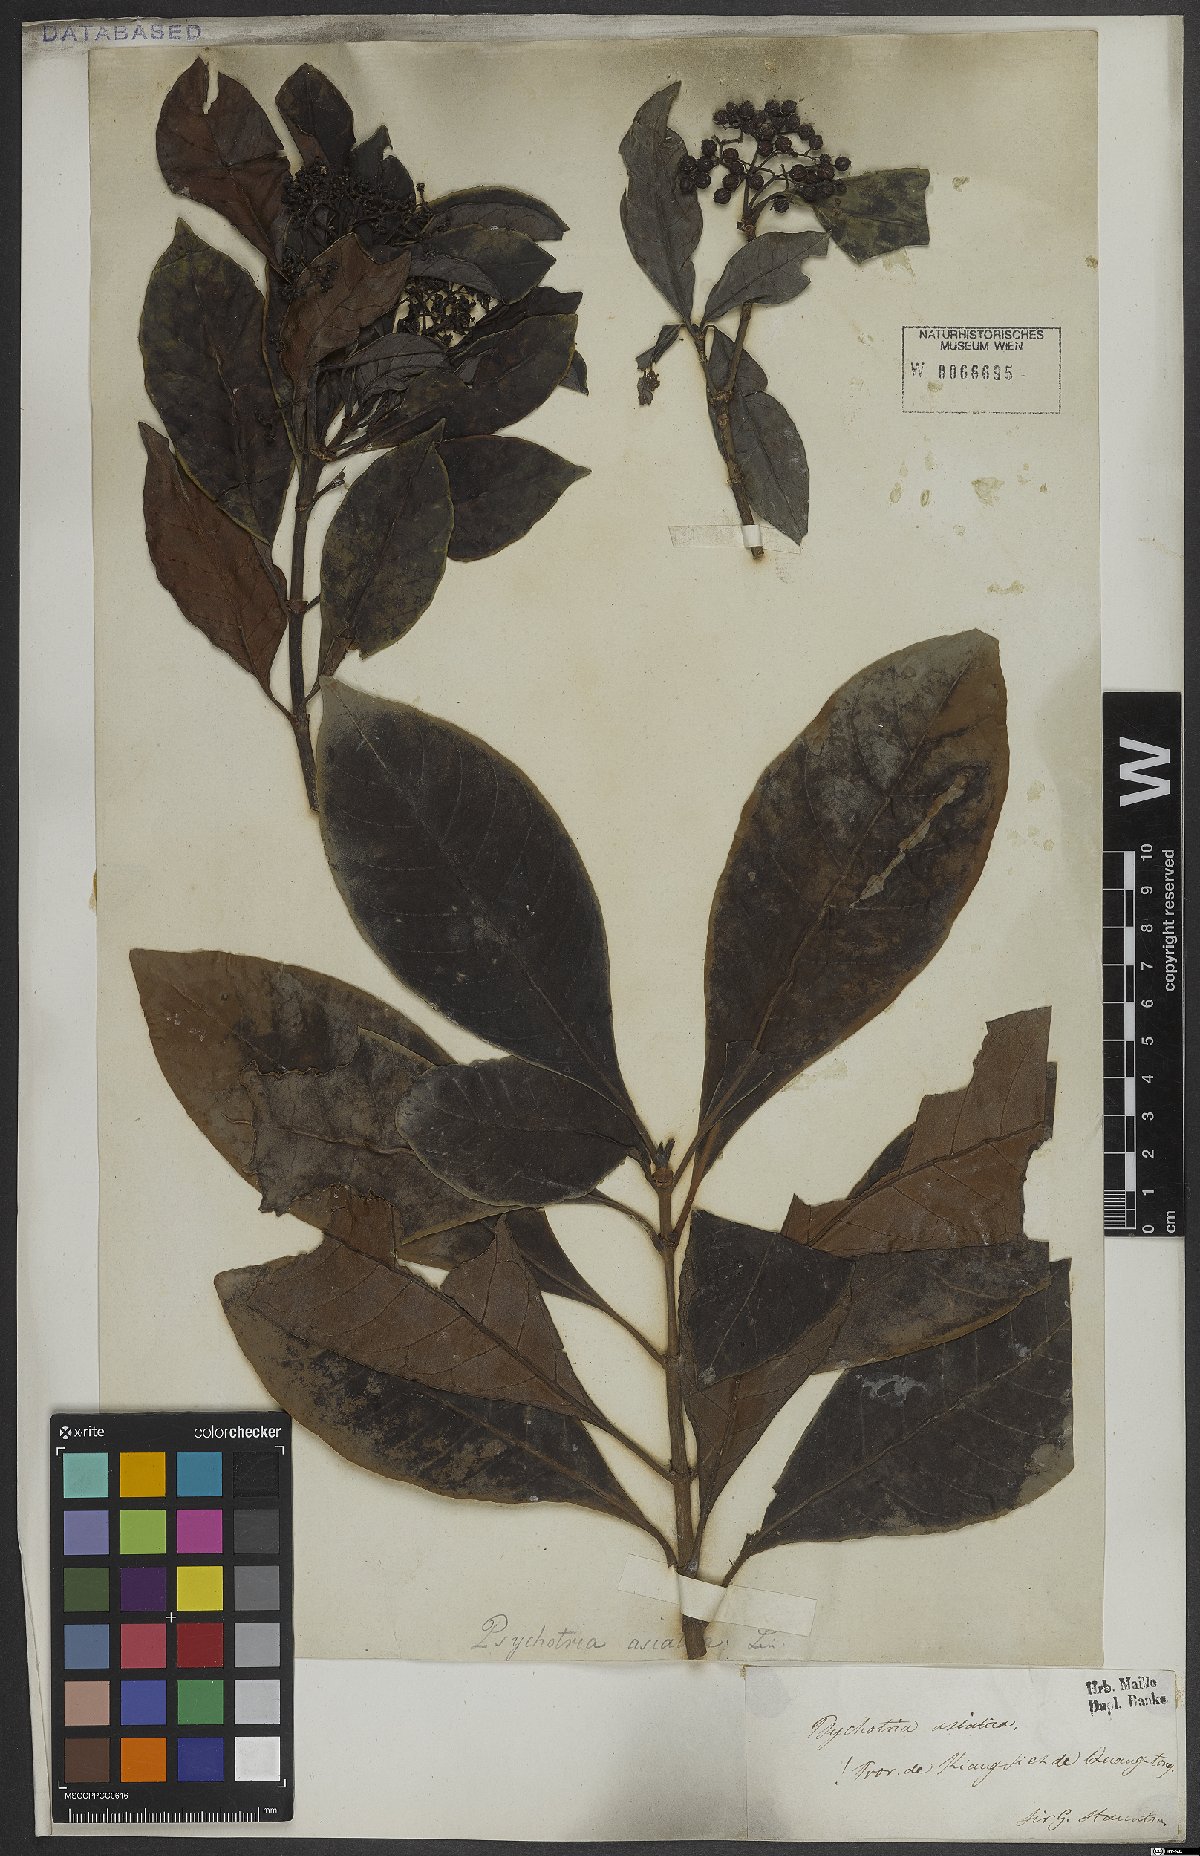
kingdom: Plantae
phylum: Tracheophyta
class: Magnoliopsida
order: Gentianales
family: Rubiaceae
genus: Psychotria
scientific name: Psychotria asiatica
